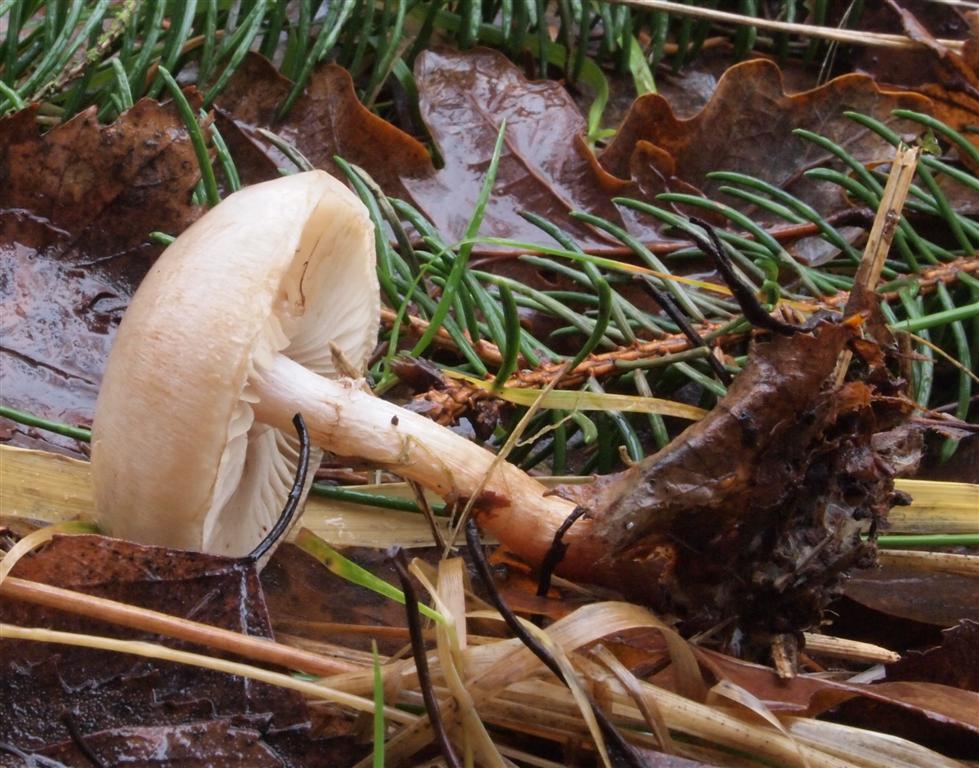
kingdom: Fungi
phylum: Basidiomycota
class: Agaricomycetes
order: Agaricales
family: Strophariaceae
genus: Pholiota
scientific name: Pholiota lenta
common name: løv-skælhat
